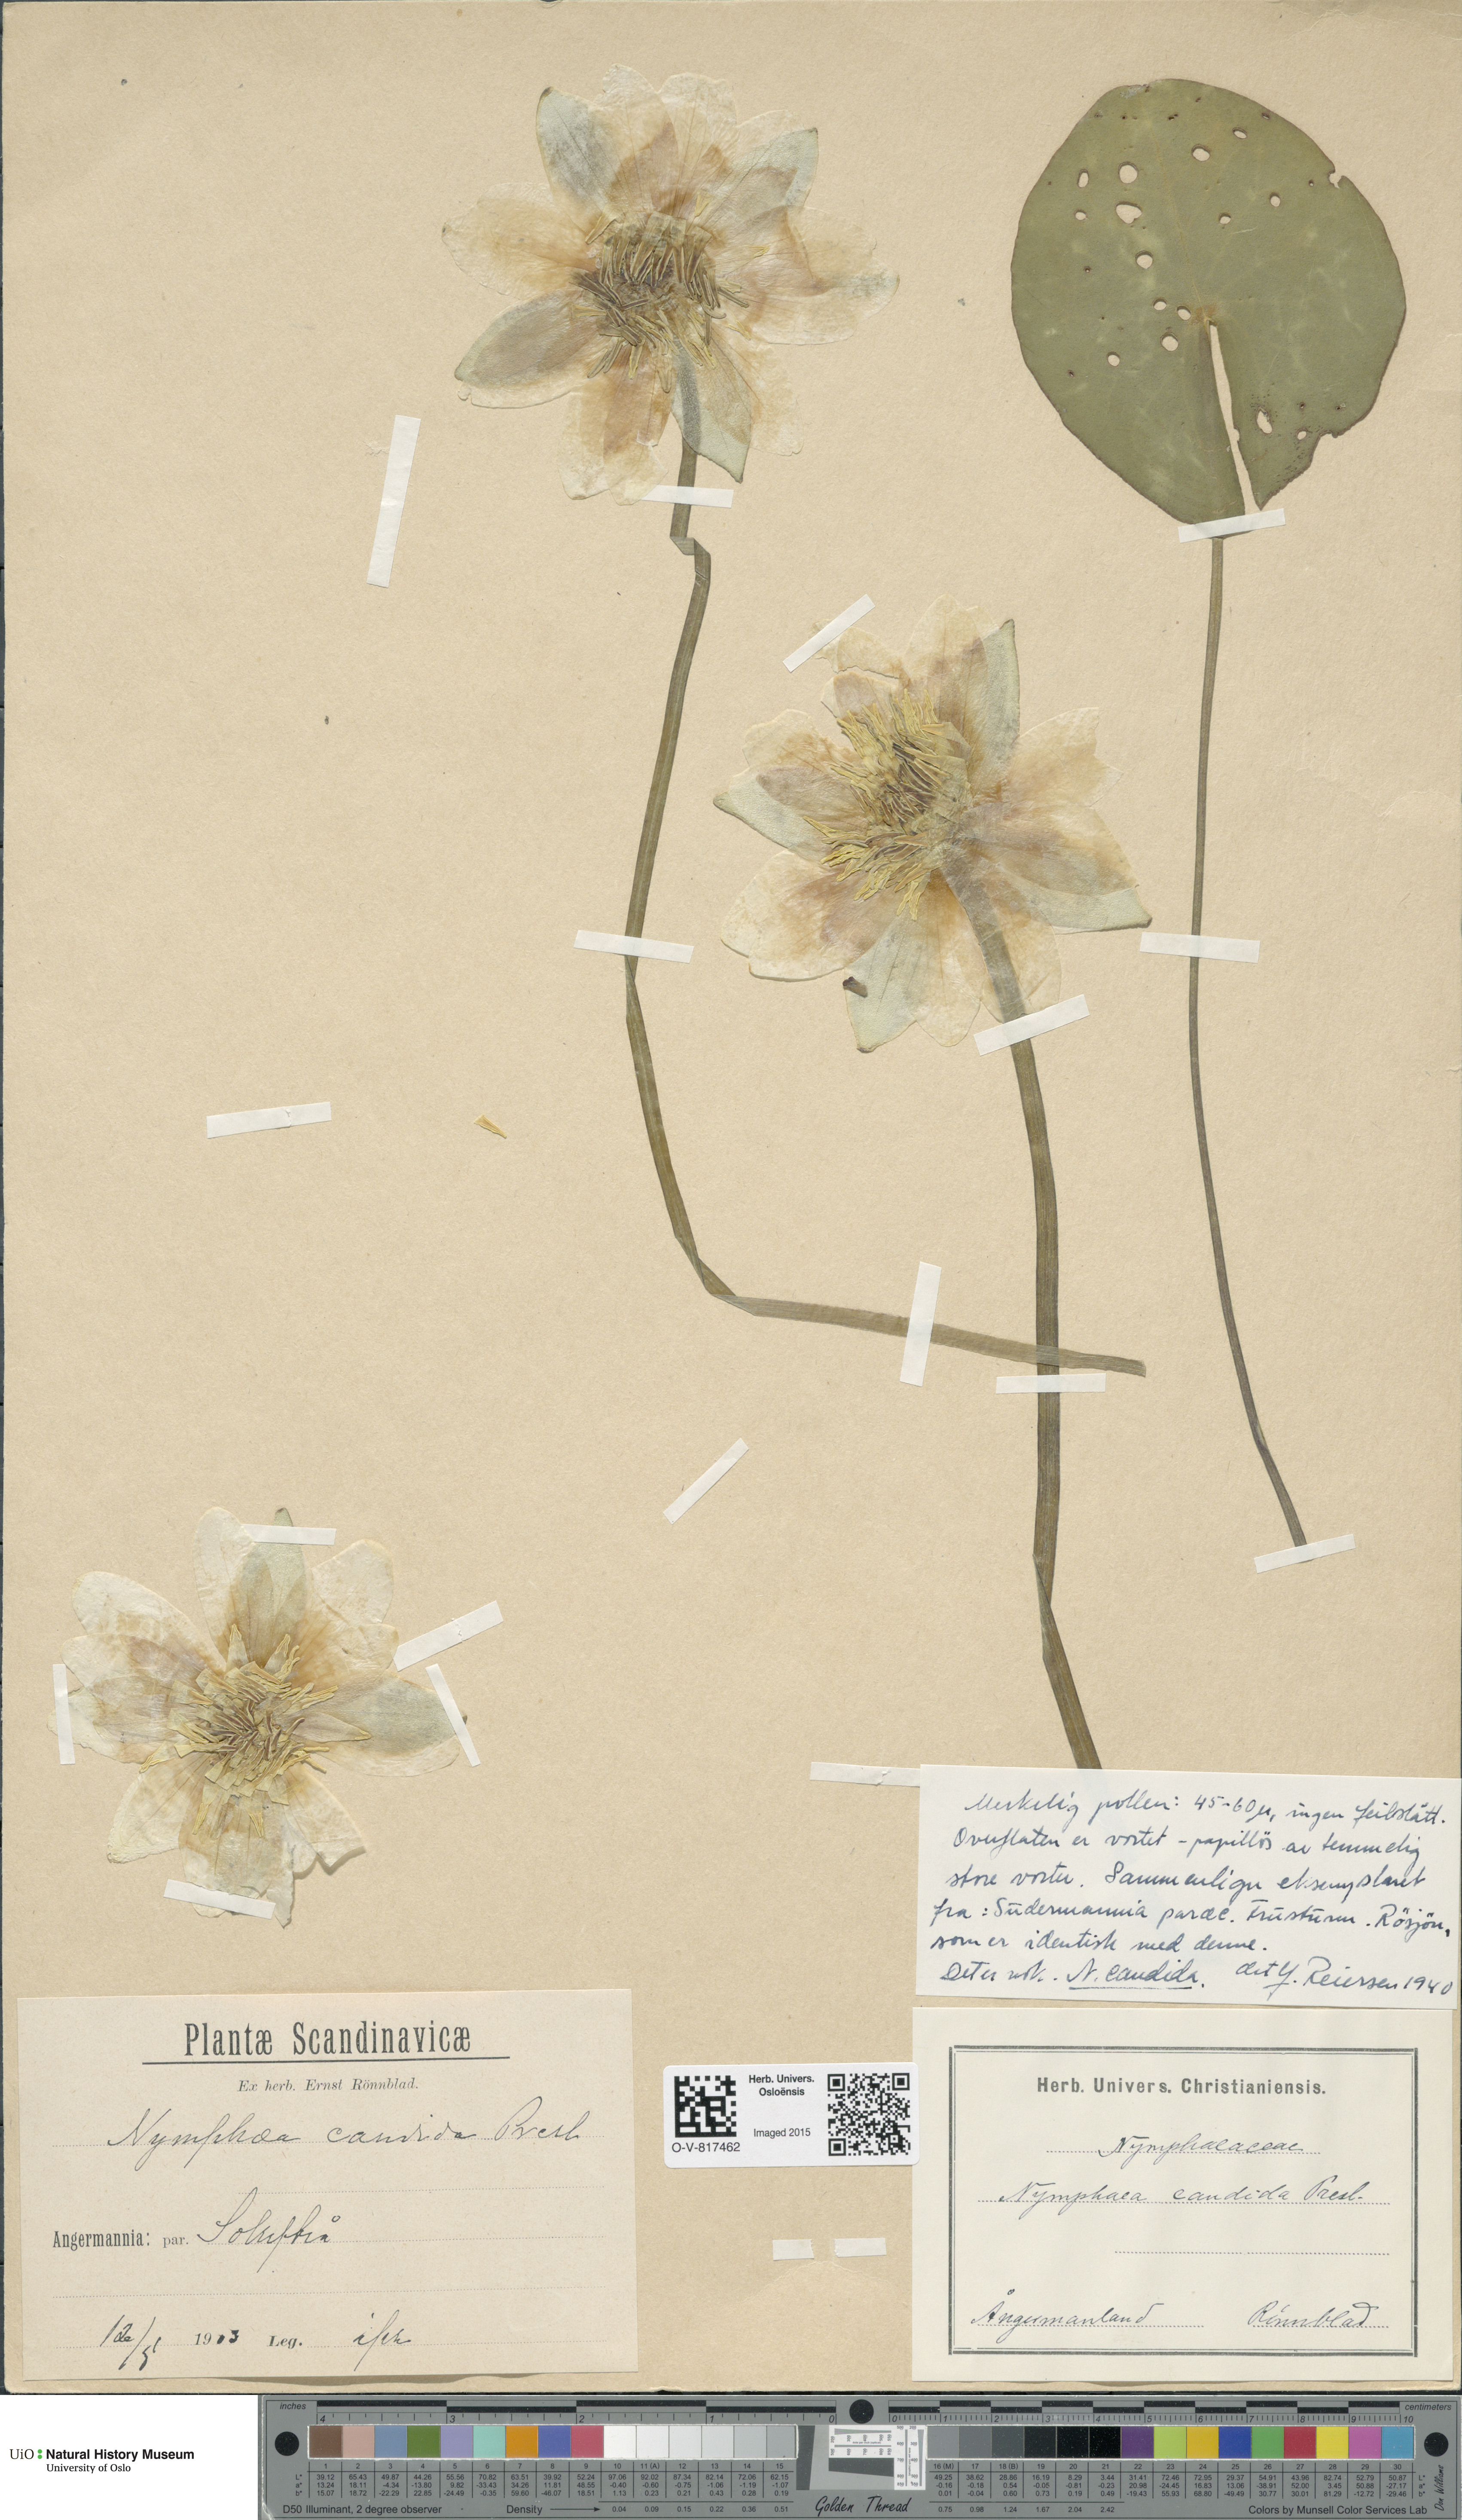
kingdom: Plantae
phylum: Tracheophyta
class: Magnoliopsida
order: Nymphaeales
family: Nymphaeaceae
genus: Nymphaea
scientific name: Nymphaea candida
